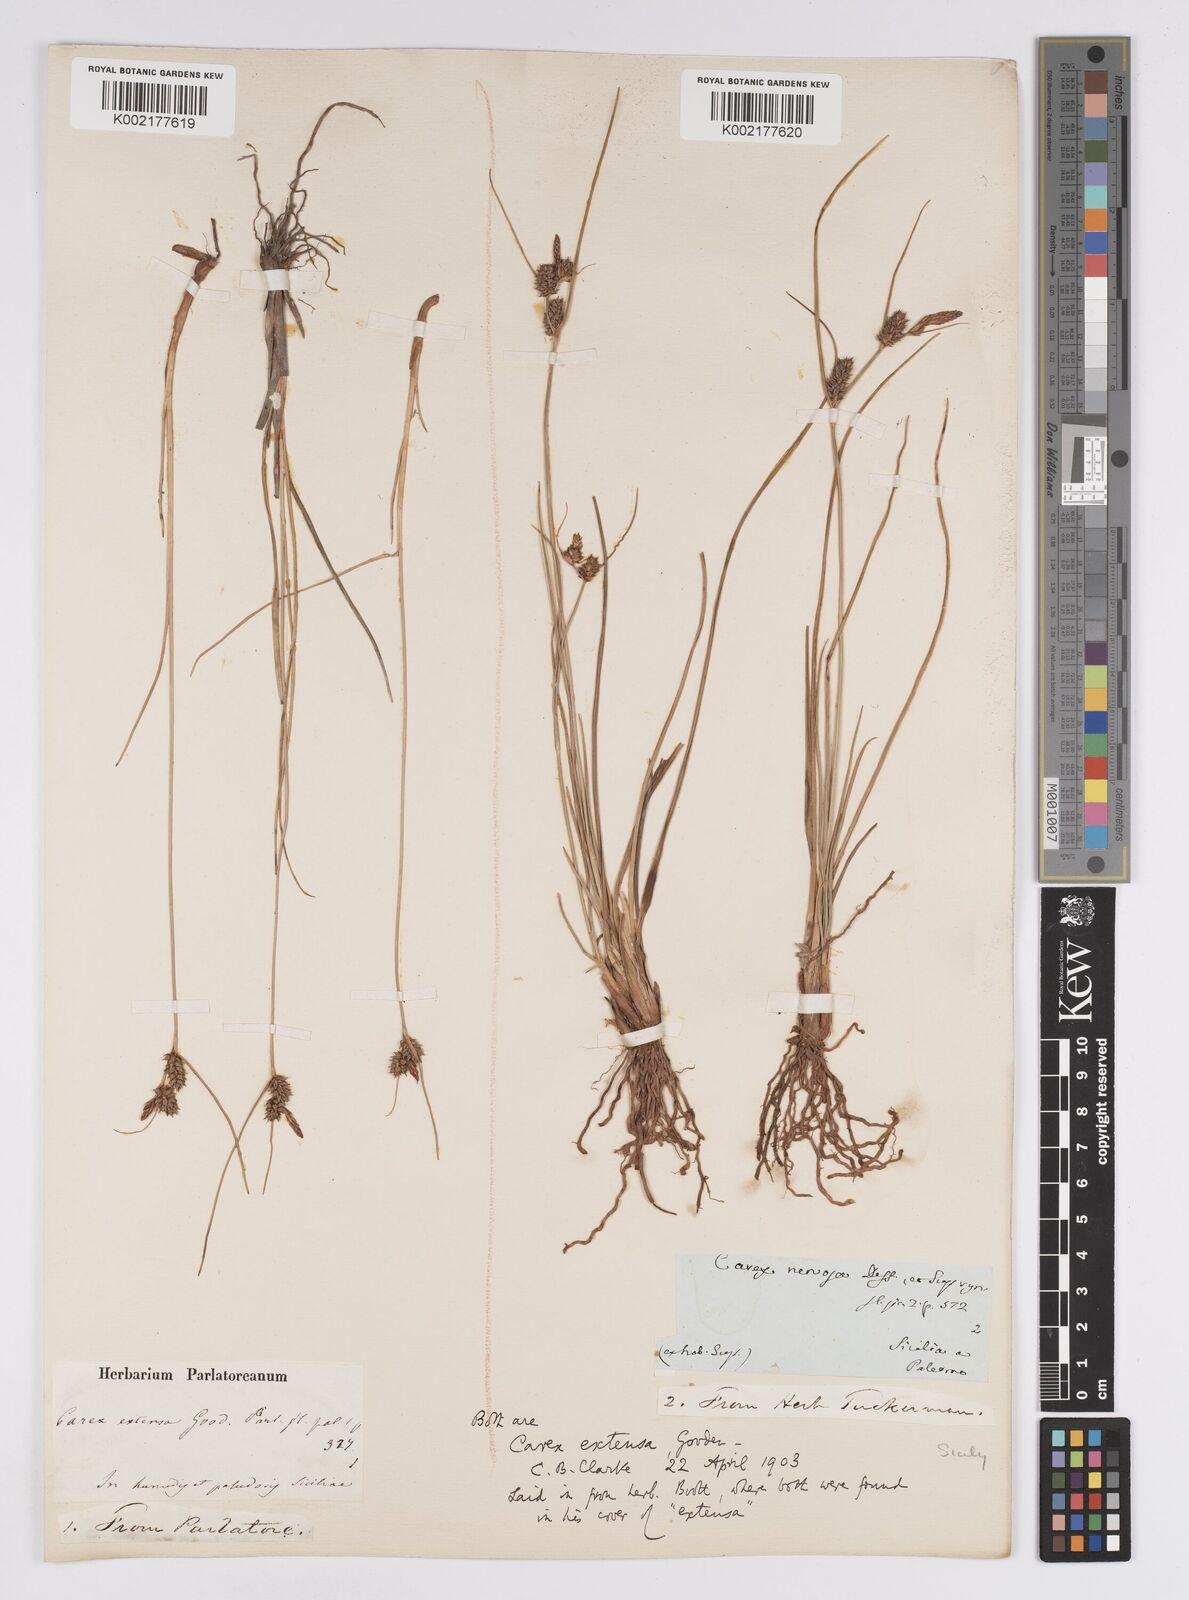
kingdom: Plantae
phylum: Tracheophyta
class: Liliopsida
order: Poales
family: Cyperaceae
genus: Carex
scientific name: Carex extensa
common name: Long-bracted sedge
